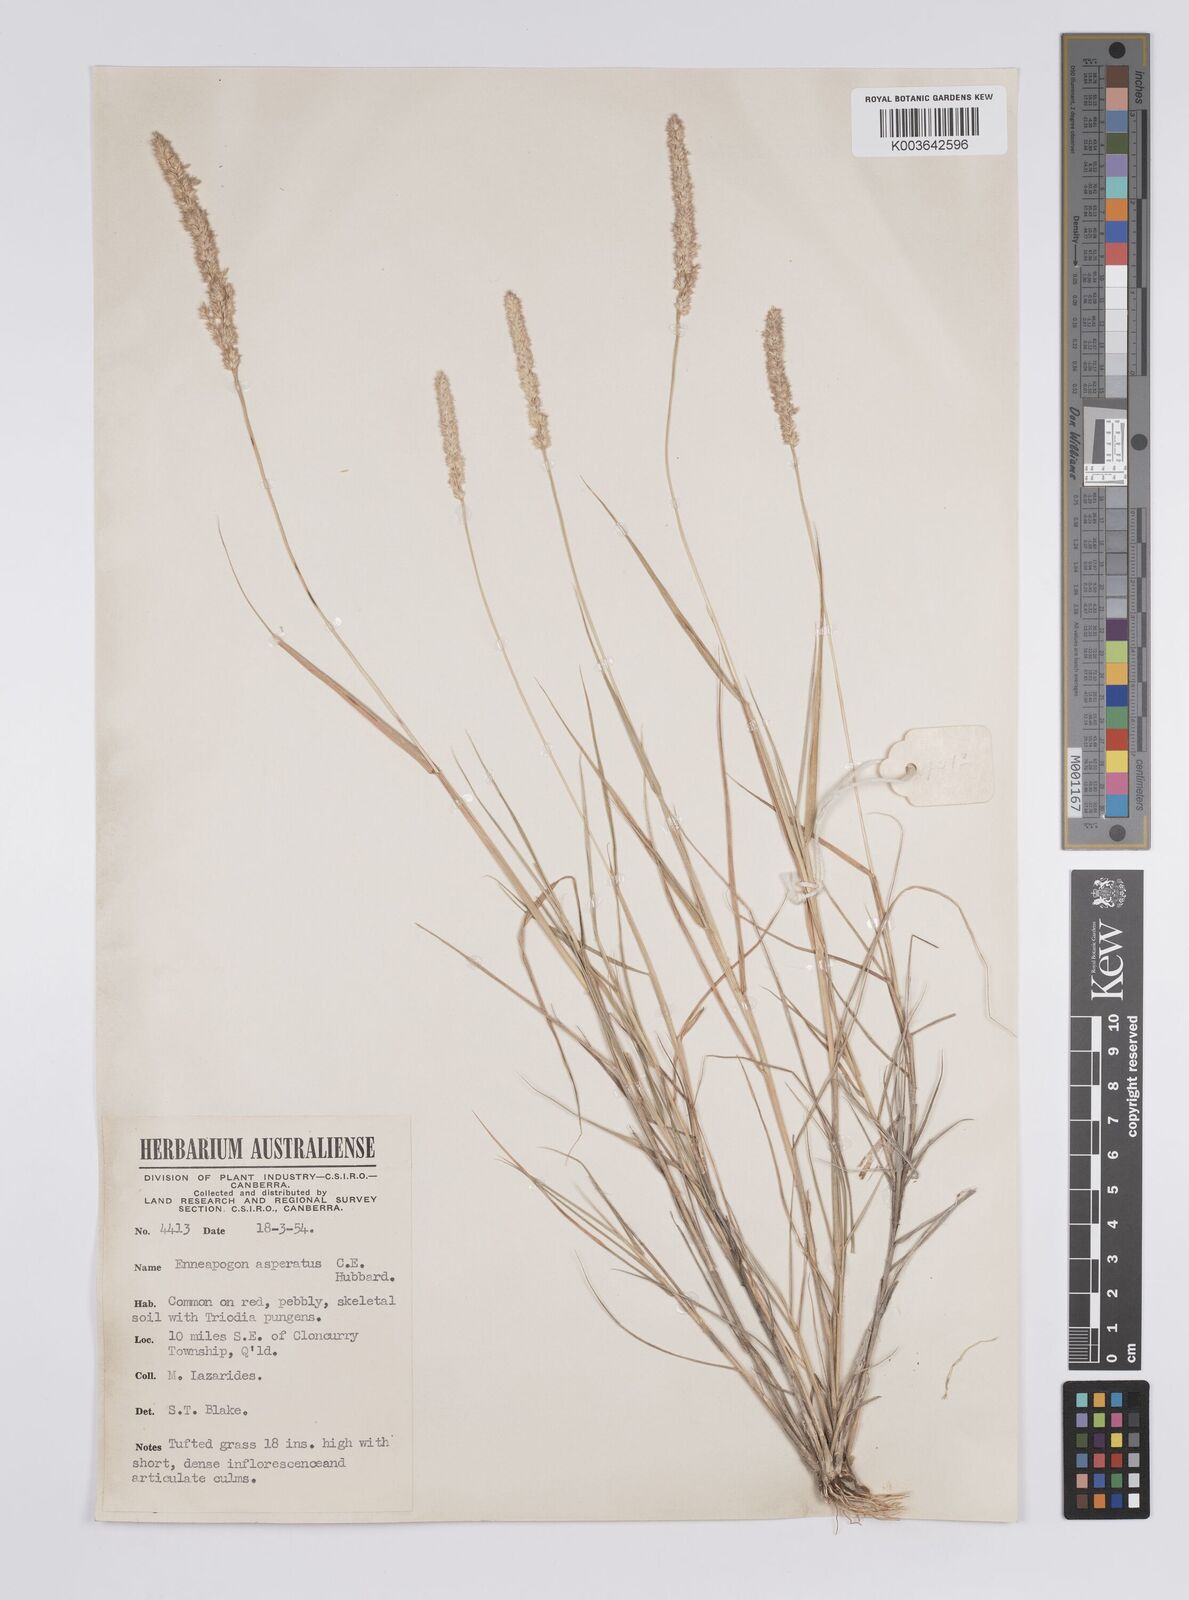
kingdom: Plantae
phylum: Tracheophyta
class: Liliopsida
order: Poales
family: Poaceae
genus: Enneapogon
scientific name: Enneapogon asperatus
